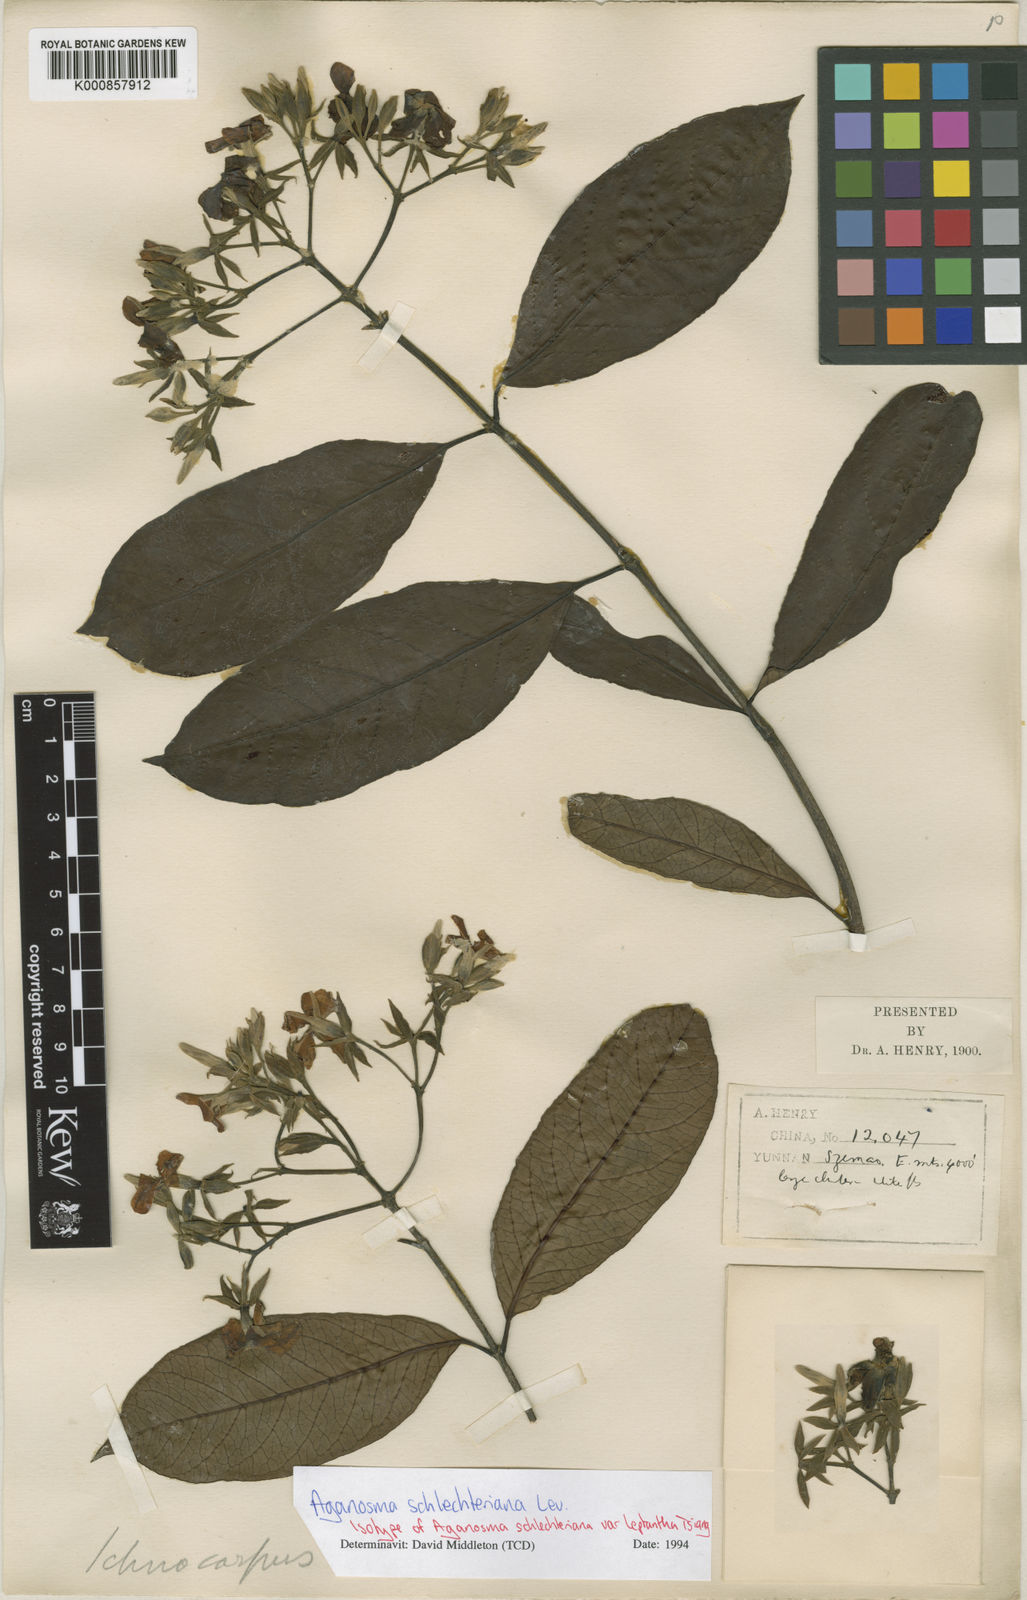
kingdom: Plantae
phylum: Tracheophyta
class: Magnoliopsida
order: Gentianales
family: Apocynaceae
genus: Aganosma
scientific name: Aganosma
